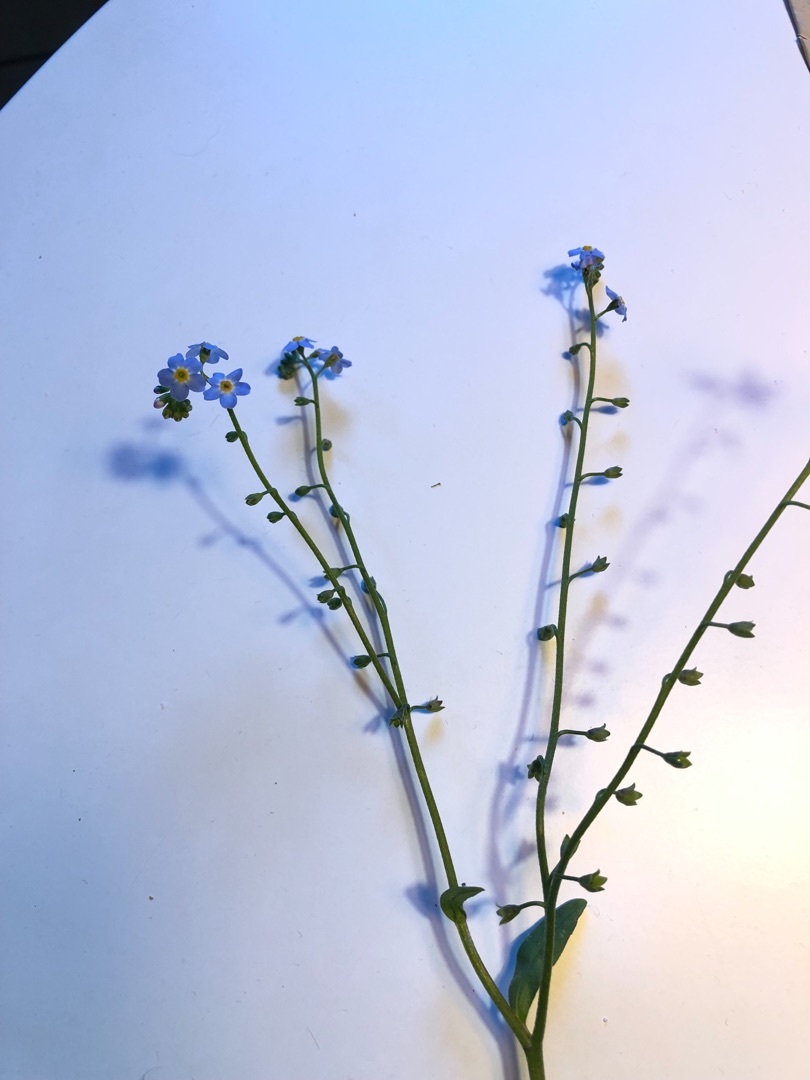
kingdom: Plantae
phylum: Tracheophyta
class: Magnoliopsida
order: Boraginales
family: Boraginaceae
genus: Myosotis
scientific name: Myosotis scorpioides
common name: Eng-forglemmigej
